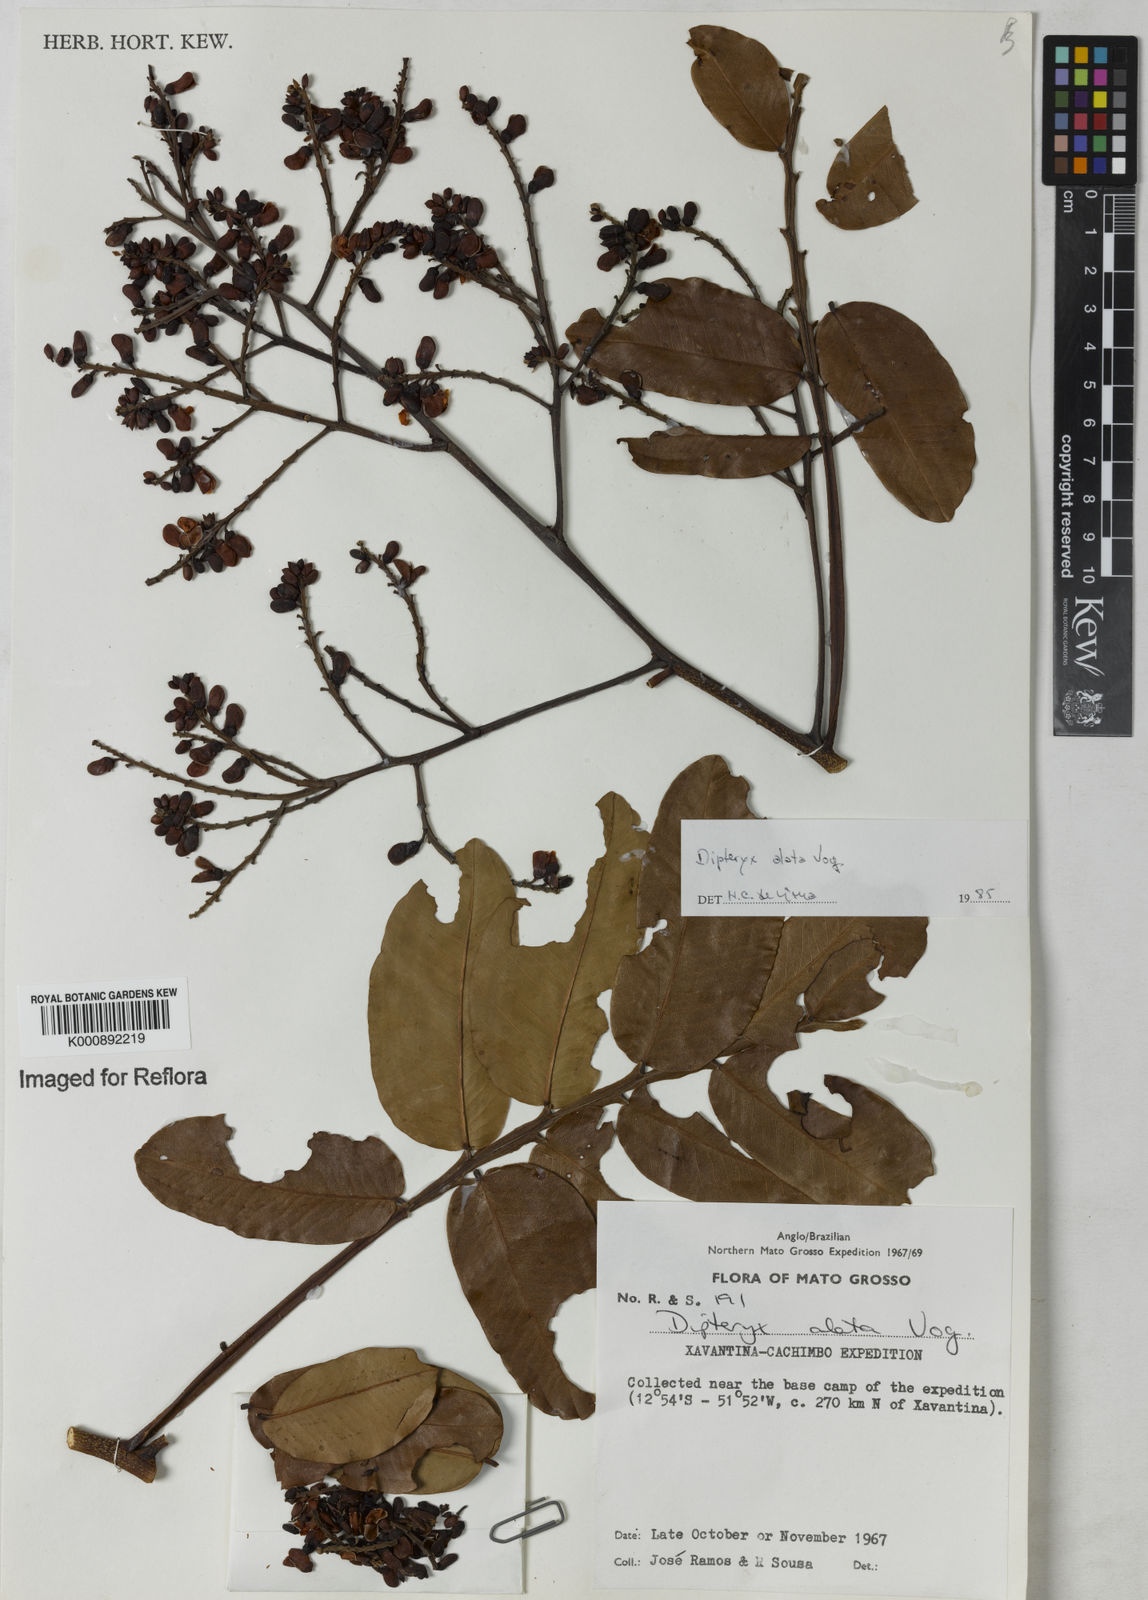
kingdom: Plantae
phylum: Tracheophyta
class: Magnoliopsida
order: Fabales
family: Fabaceae
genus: Dipteryx
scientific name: Dipteryx alata
